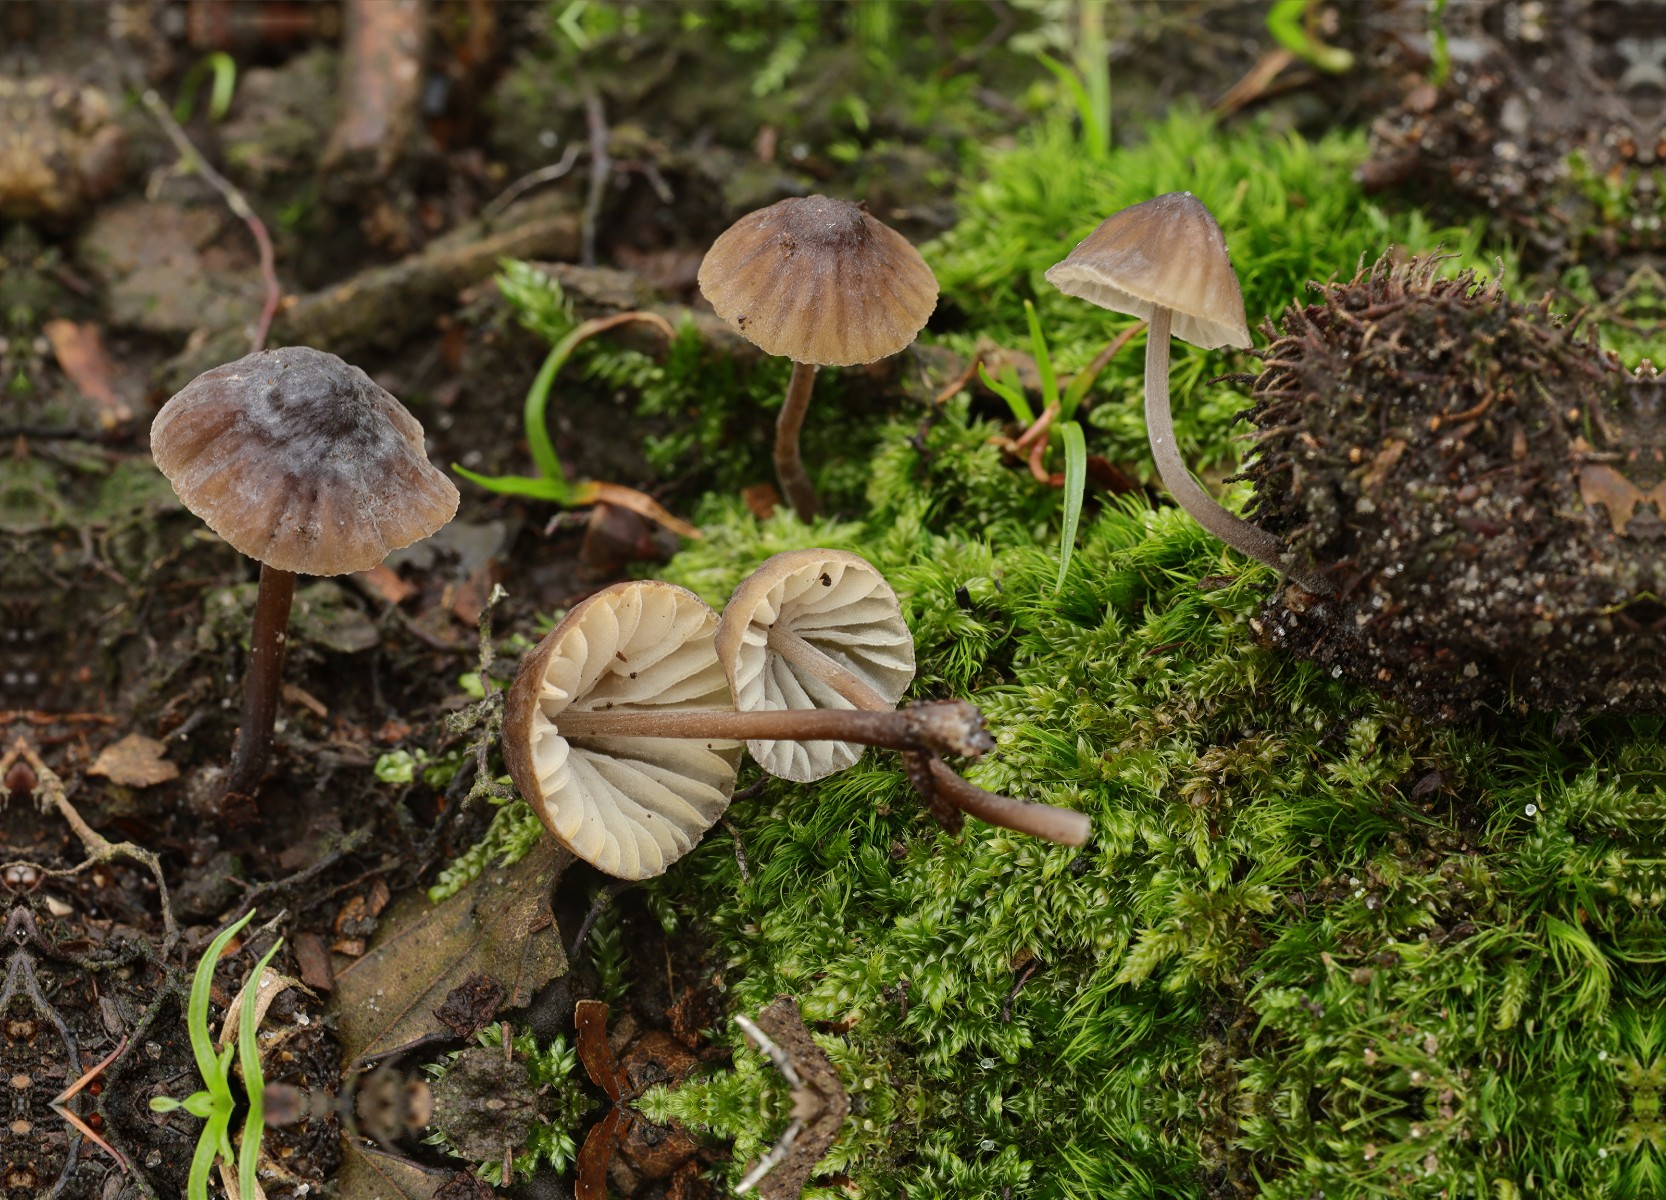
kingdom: Fungi
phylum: Basidiomycota
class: Agaricomycetes
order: Agaricales
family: Mycenaceae
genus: Mycena
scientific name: Mycena galopus
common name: hvidmælket huesvamp
